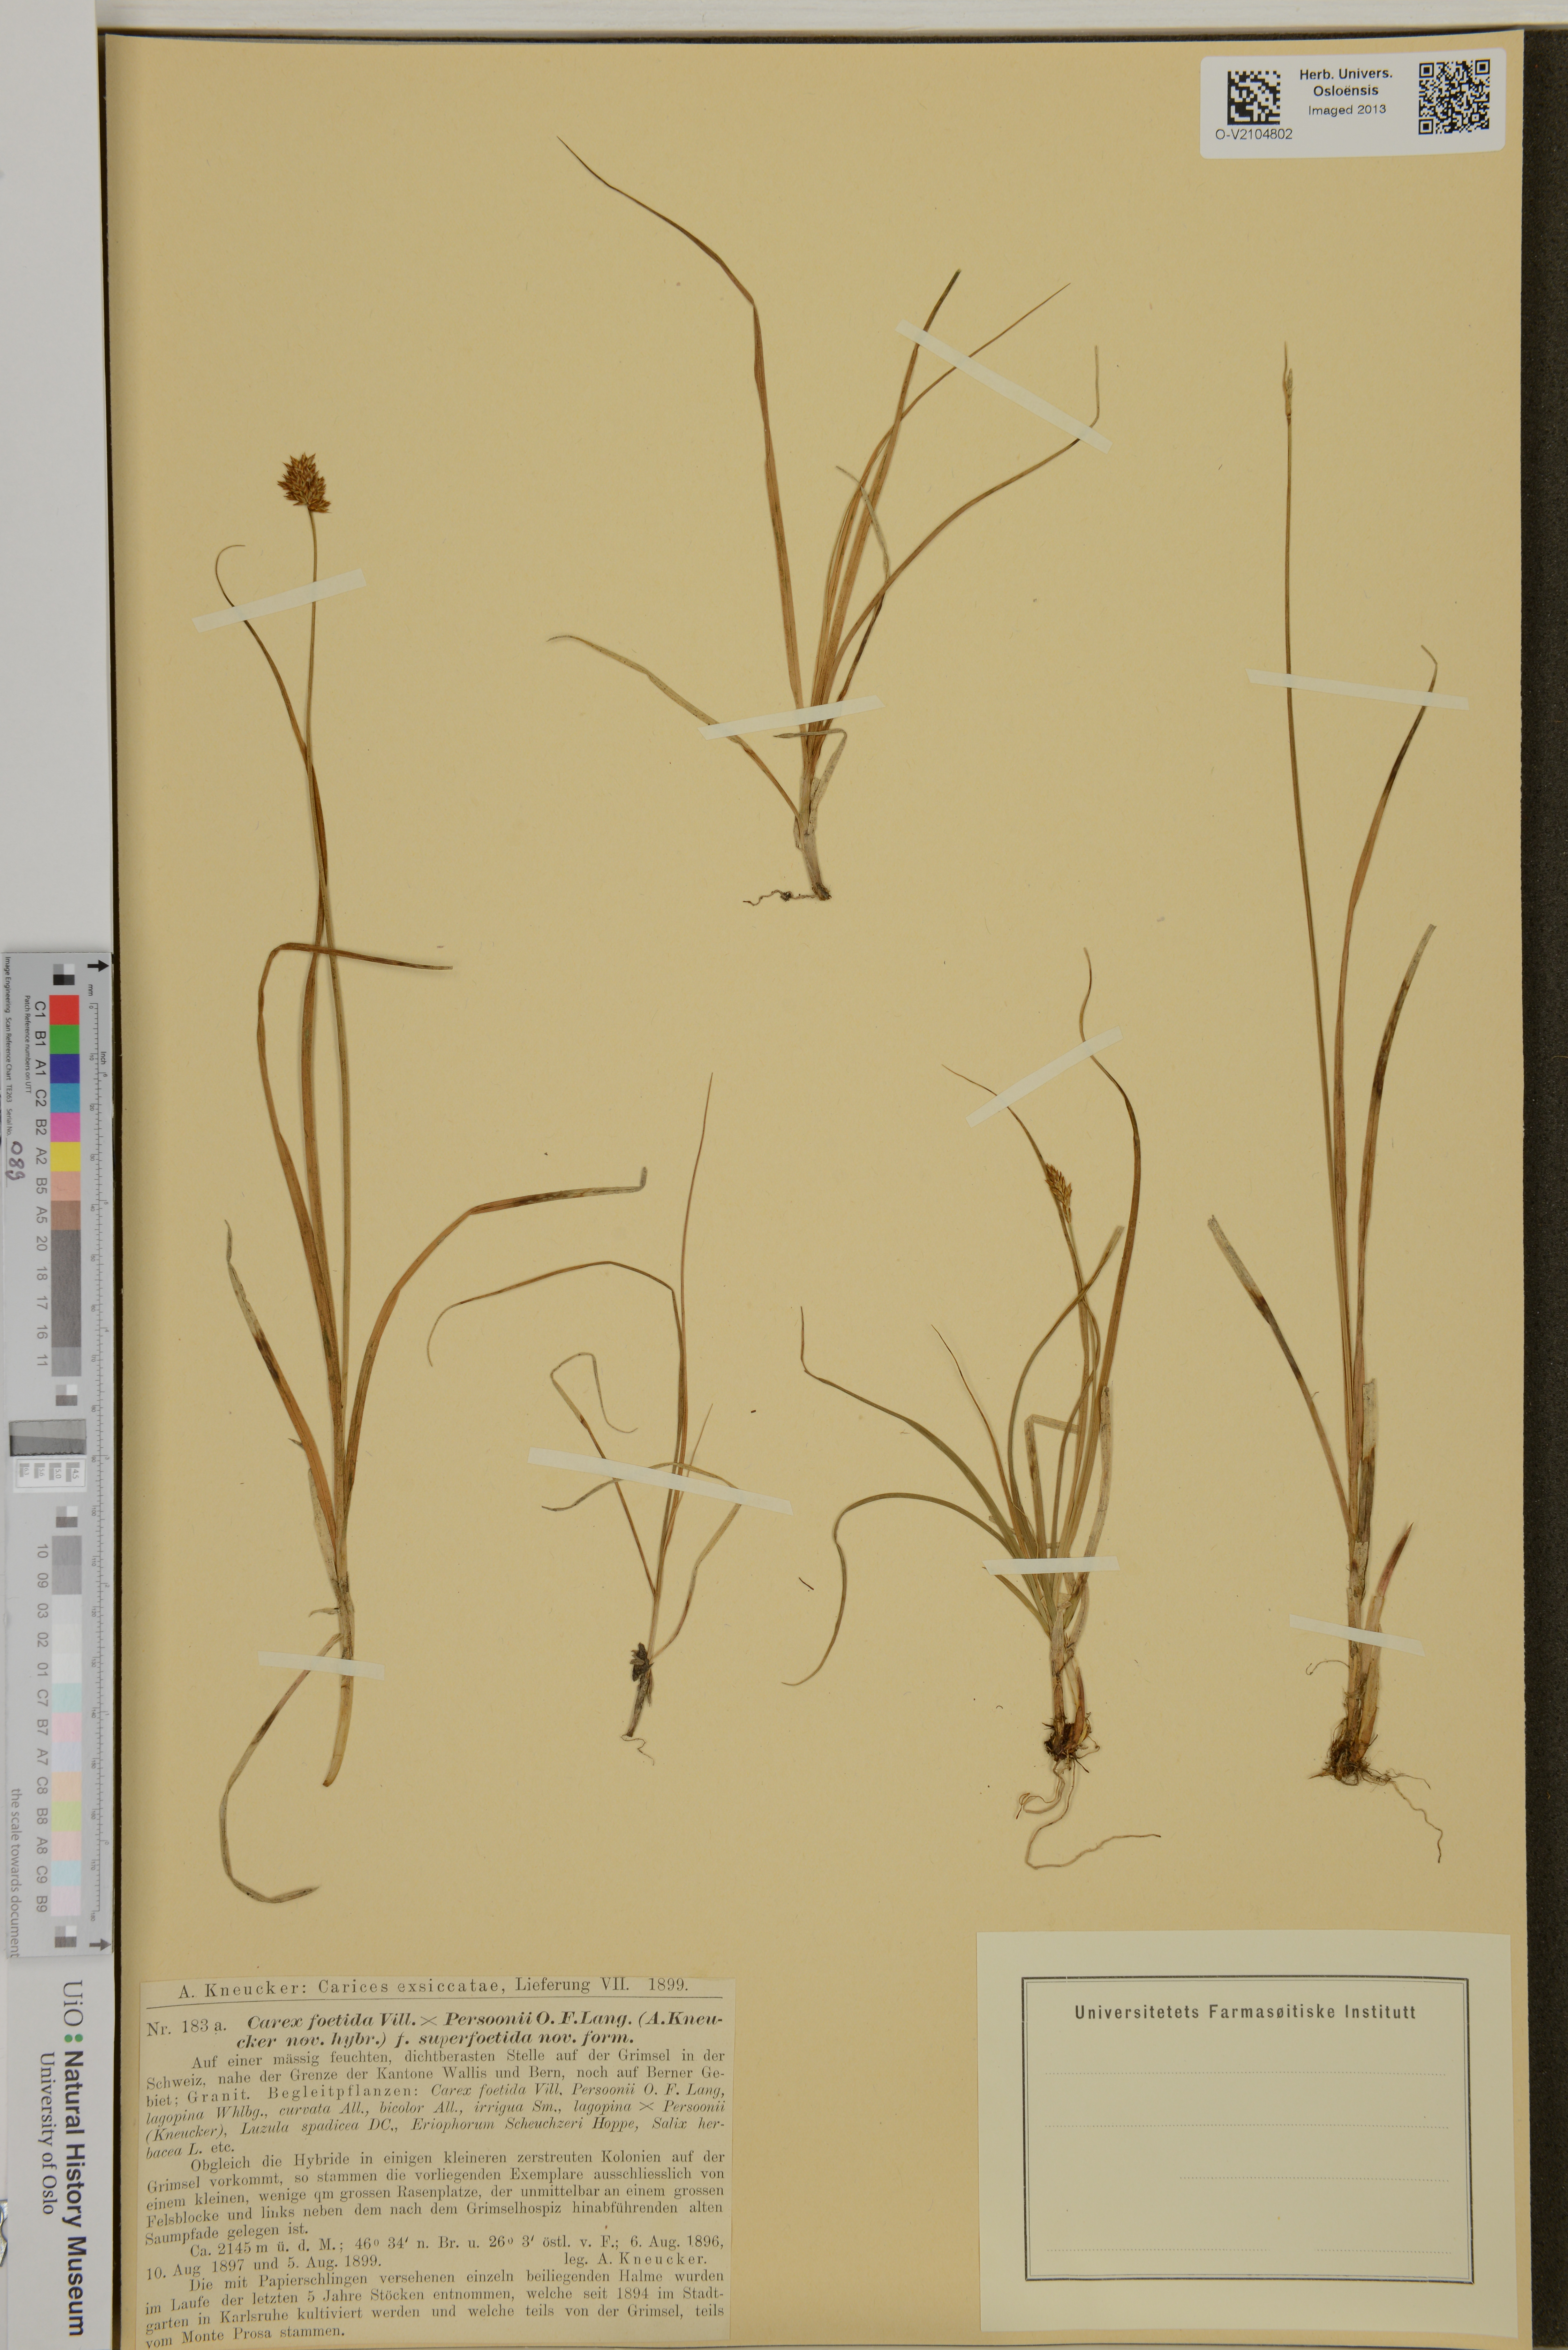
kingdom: Plantae
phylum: Tracheophyta
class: Liliopsida
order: Poales
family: Cyperaceae
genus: Carex
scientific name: Carex
